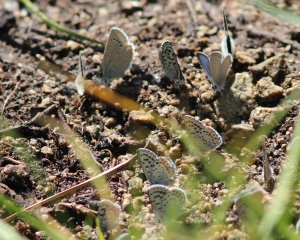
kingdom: Animalia
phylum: Arthropoda
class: Insecta
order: Lepidoptera
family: Lycaenidae
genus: Elkalyce
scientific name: Elkalyce amyntula
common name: Western Tailed-Blue
